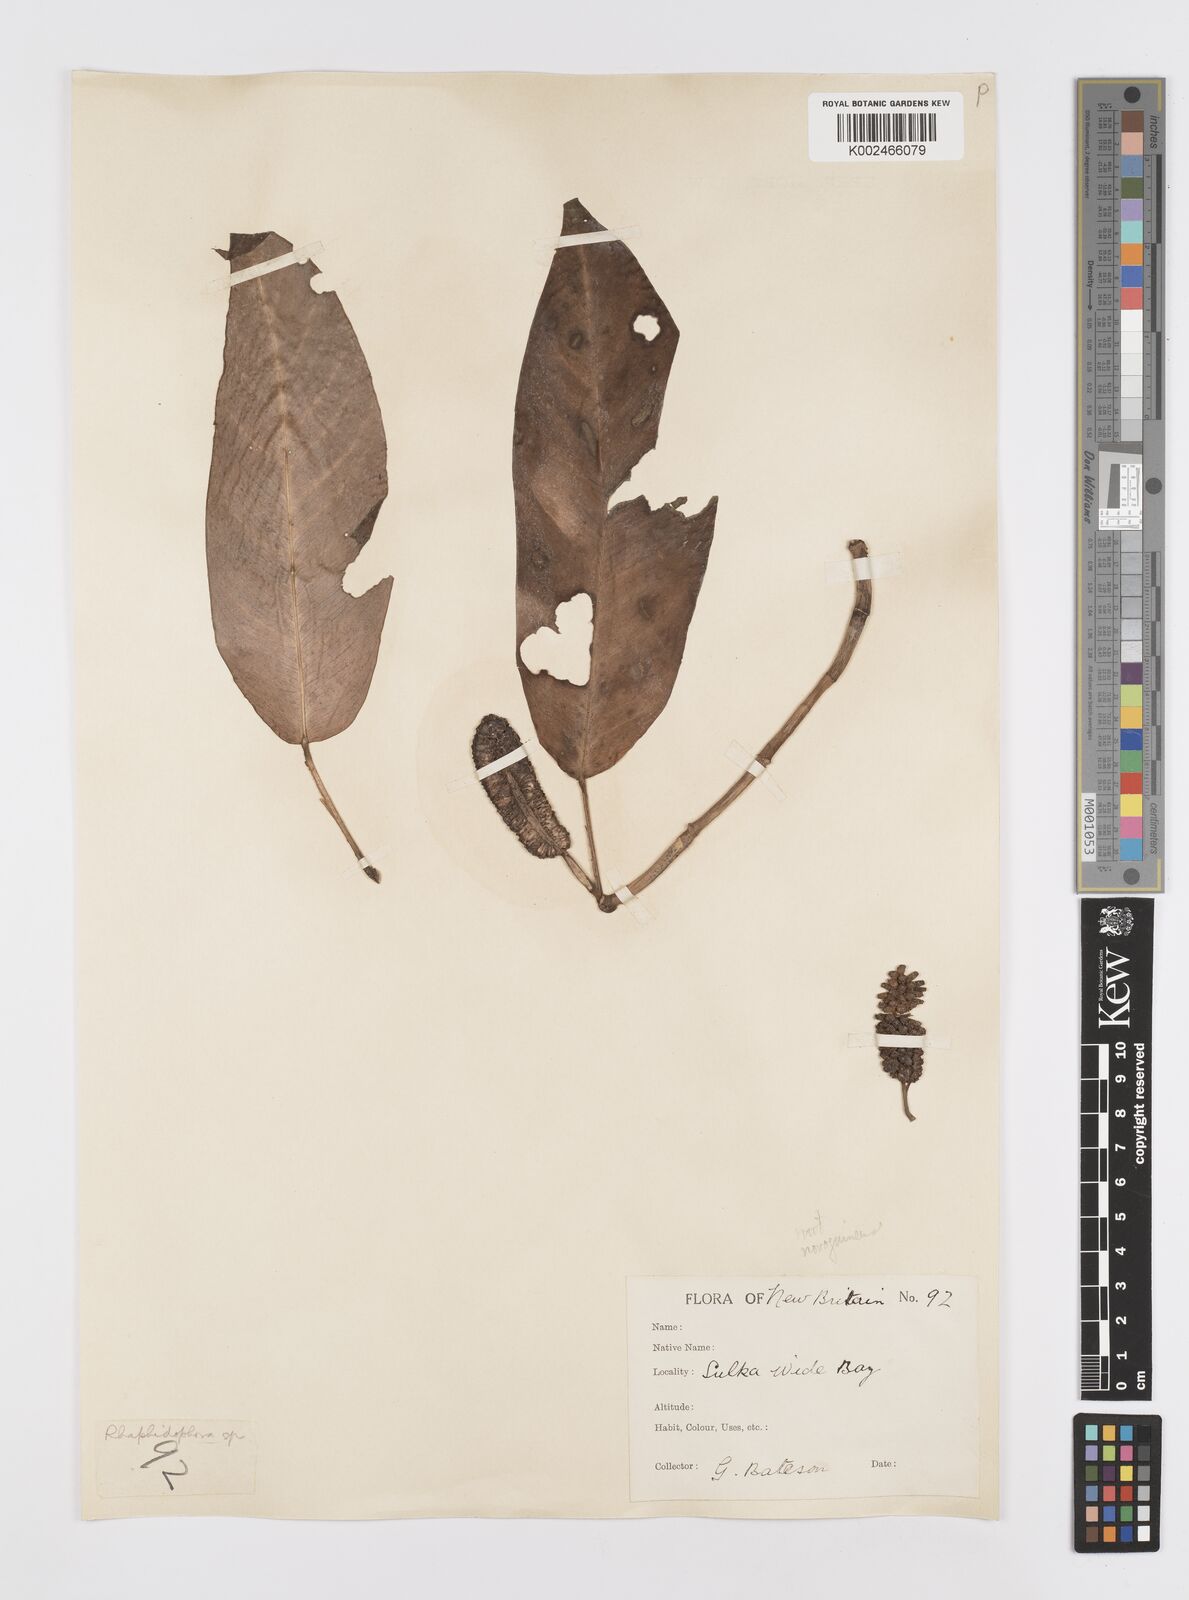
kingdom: Plantae
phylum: Tracheophyta
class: Liliopsida
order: Alismatales
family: Araceae
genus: Rhaphidophora
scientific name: Rhaphidophora mima
